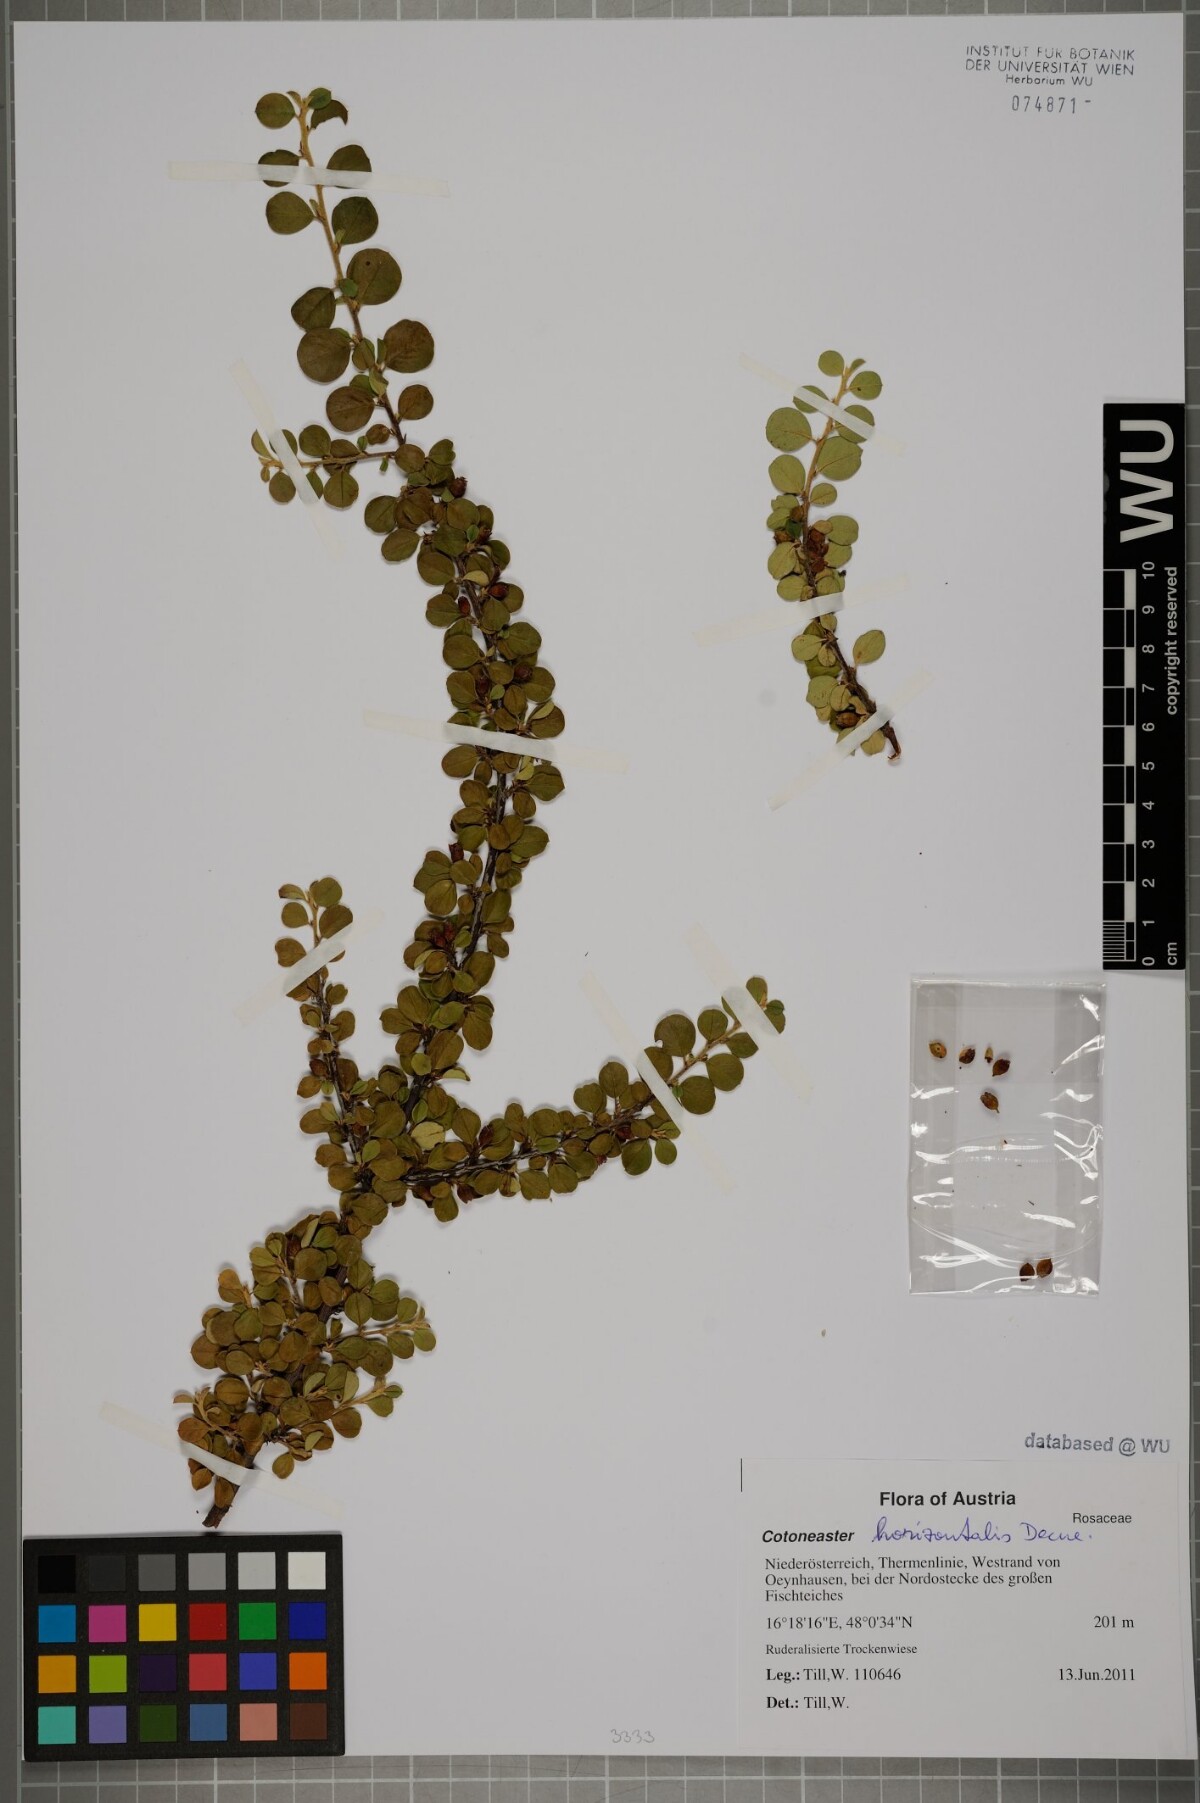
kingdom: Plantae
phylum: Tracheophyta
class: Magnoliopsida
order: Rosales
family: Rosaceae
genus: Cotoneaster
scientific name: Cotoneaster horizontalis
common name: Wall cotoneaster
